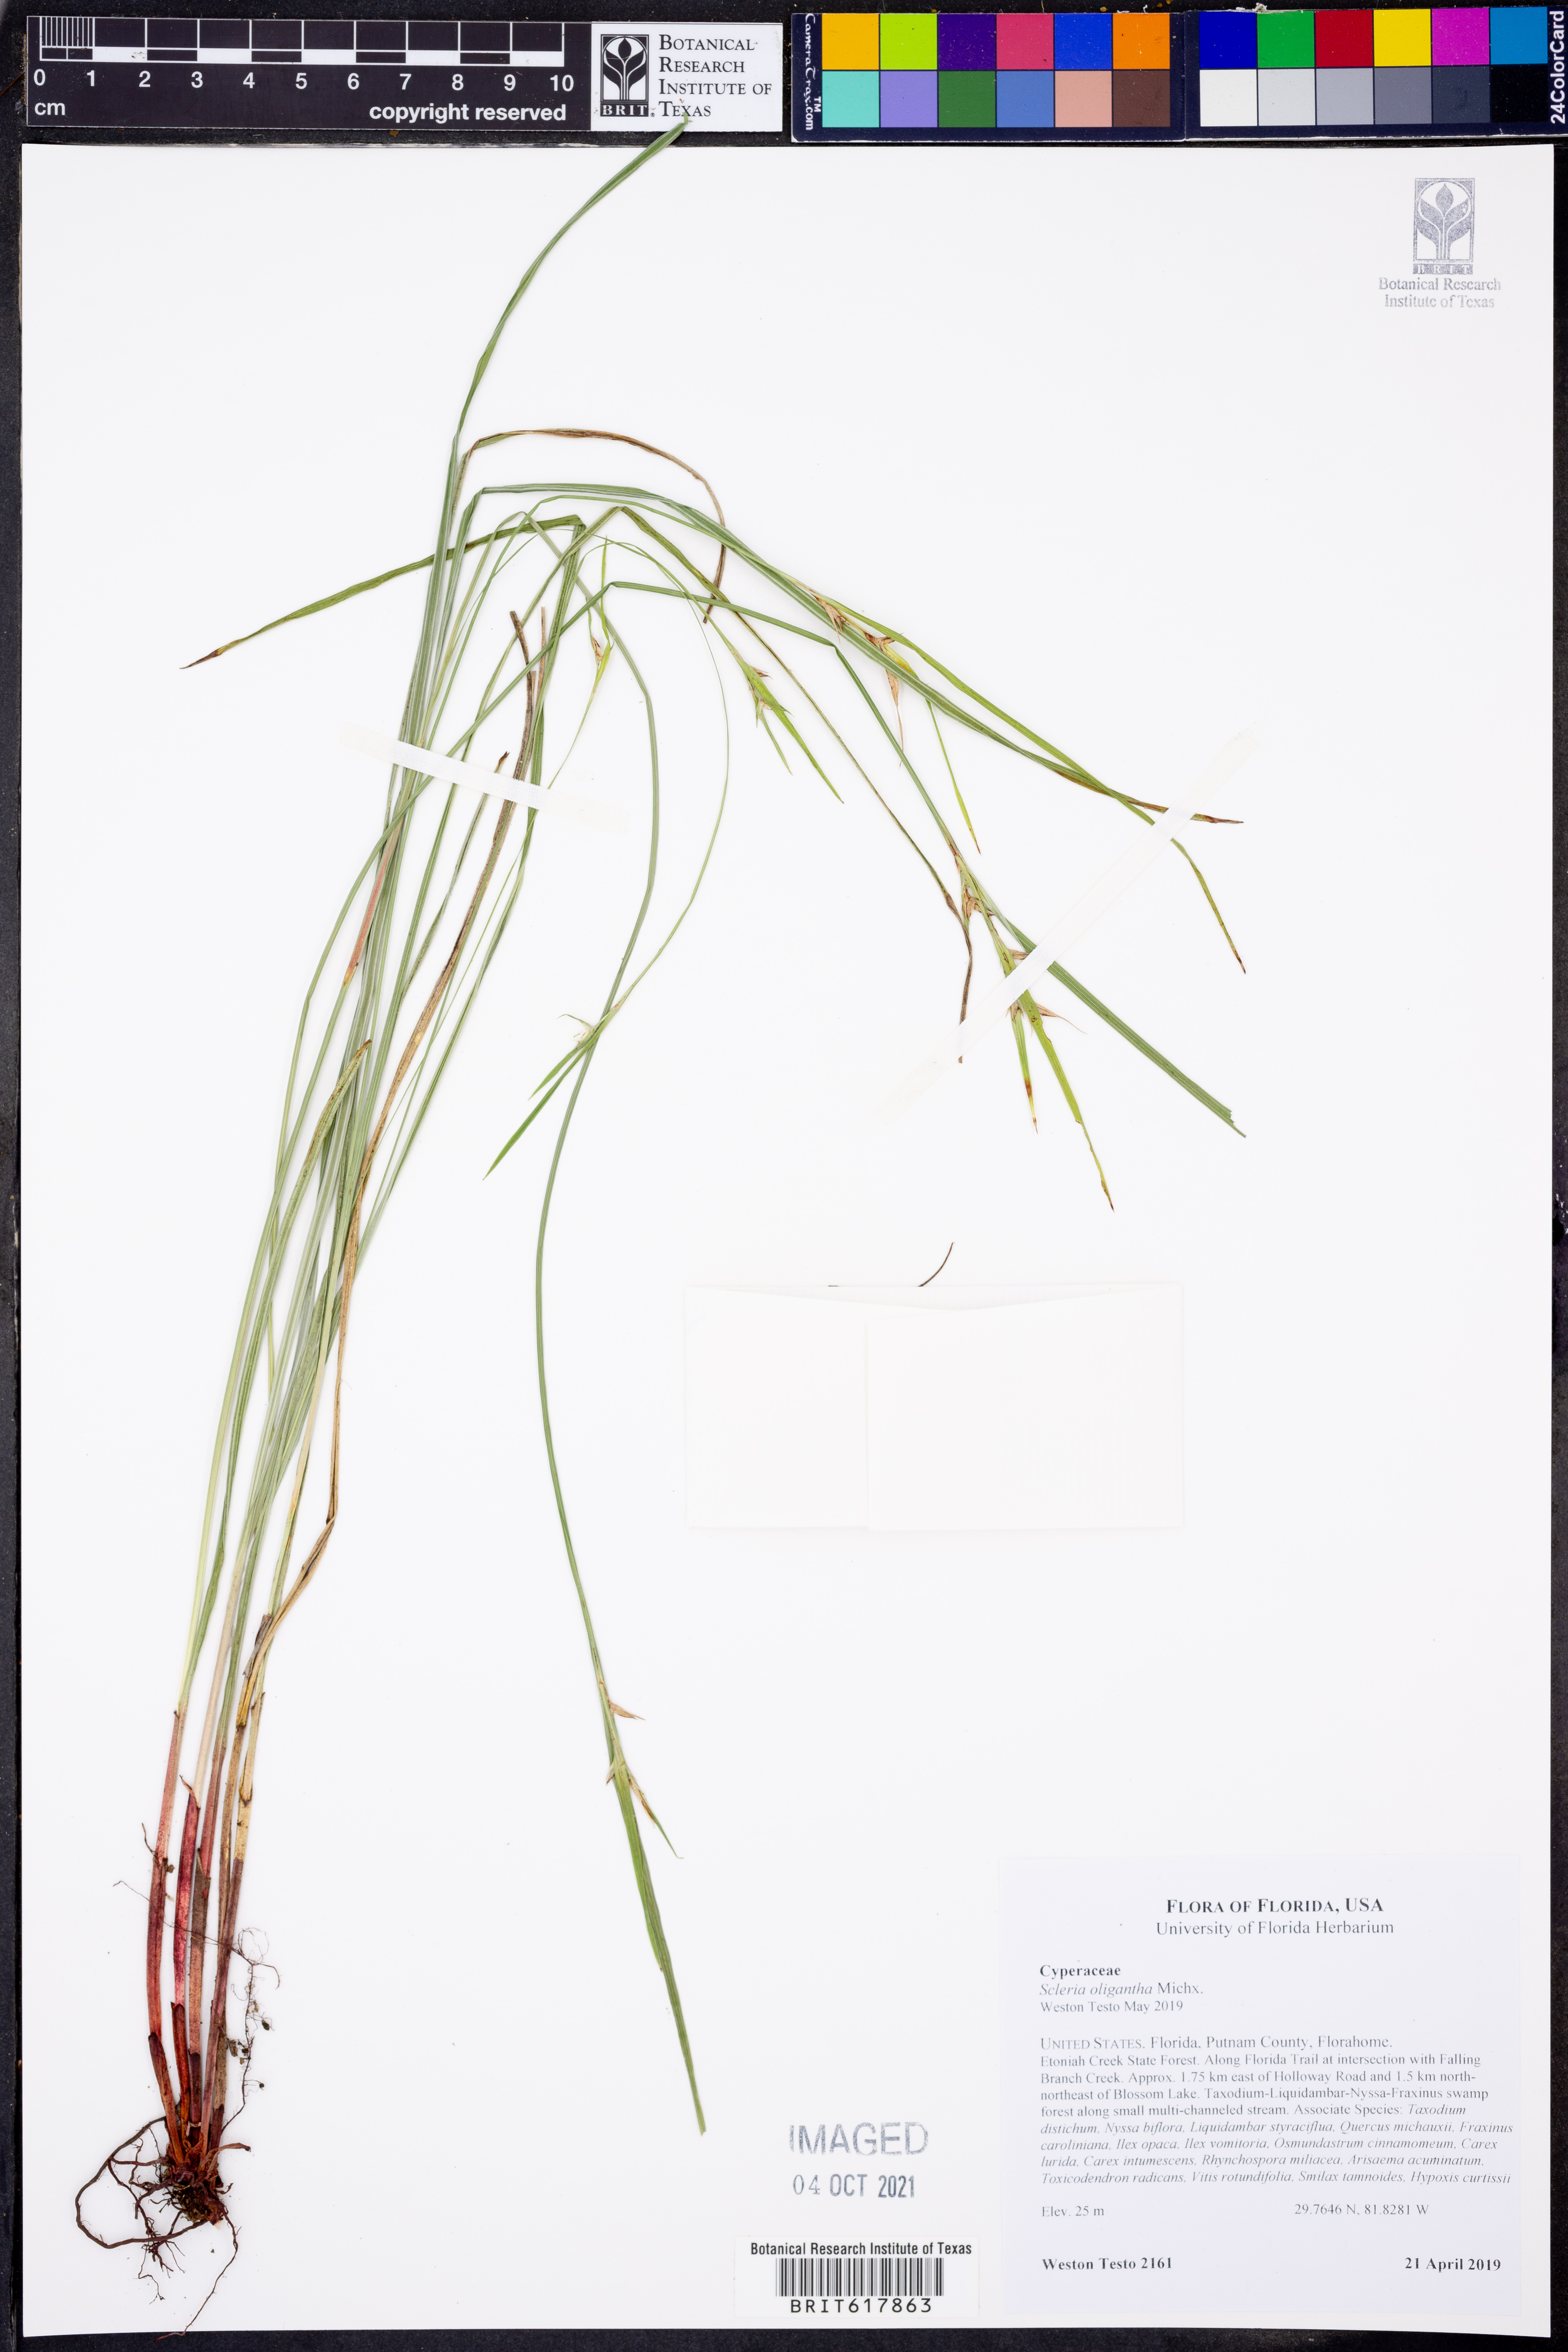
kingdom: Plantae
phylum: Tracheophyta
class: Liliopsida
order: Poales
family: Cyperaceae
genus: Scleria
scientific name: Scleria oligantha
